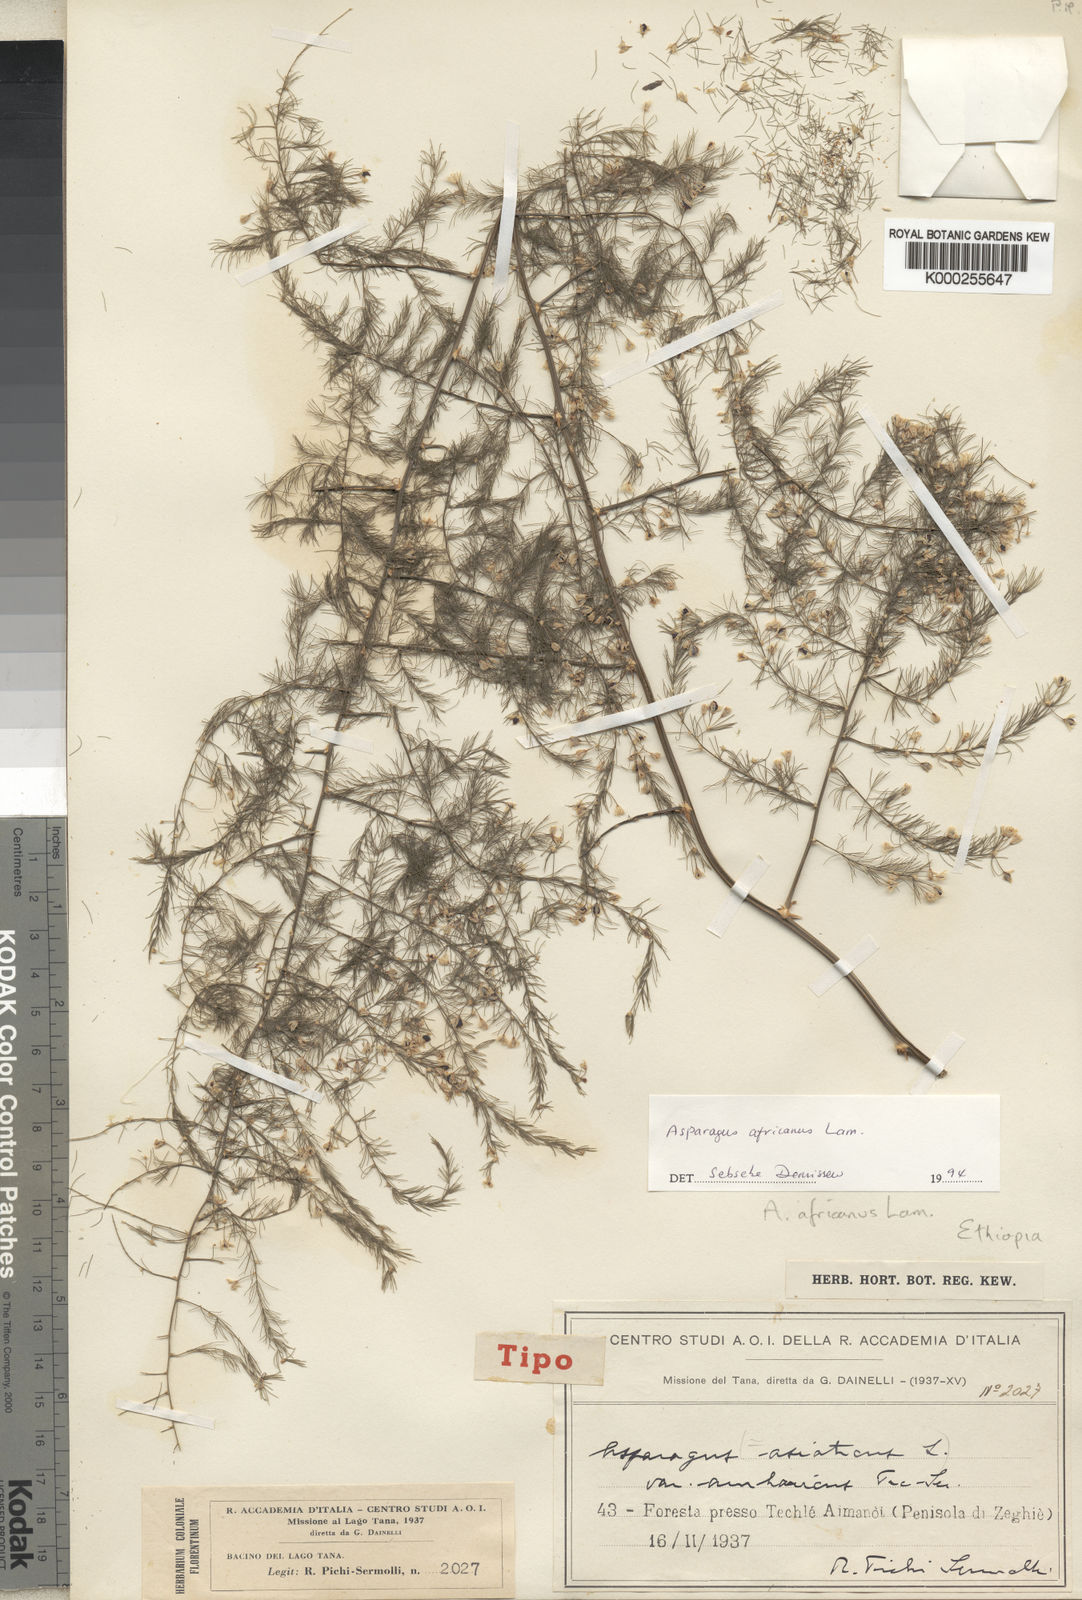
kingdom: Plantae
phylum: Tracheophyta
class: Liliopsida
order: Asparagales
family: Asparagaceae
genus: Asparagus
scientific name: Asparagus africanus
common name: Asparagus-fern
